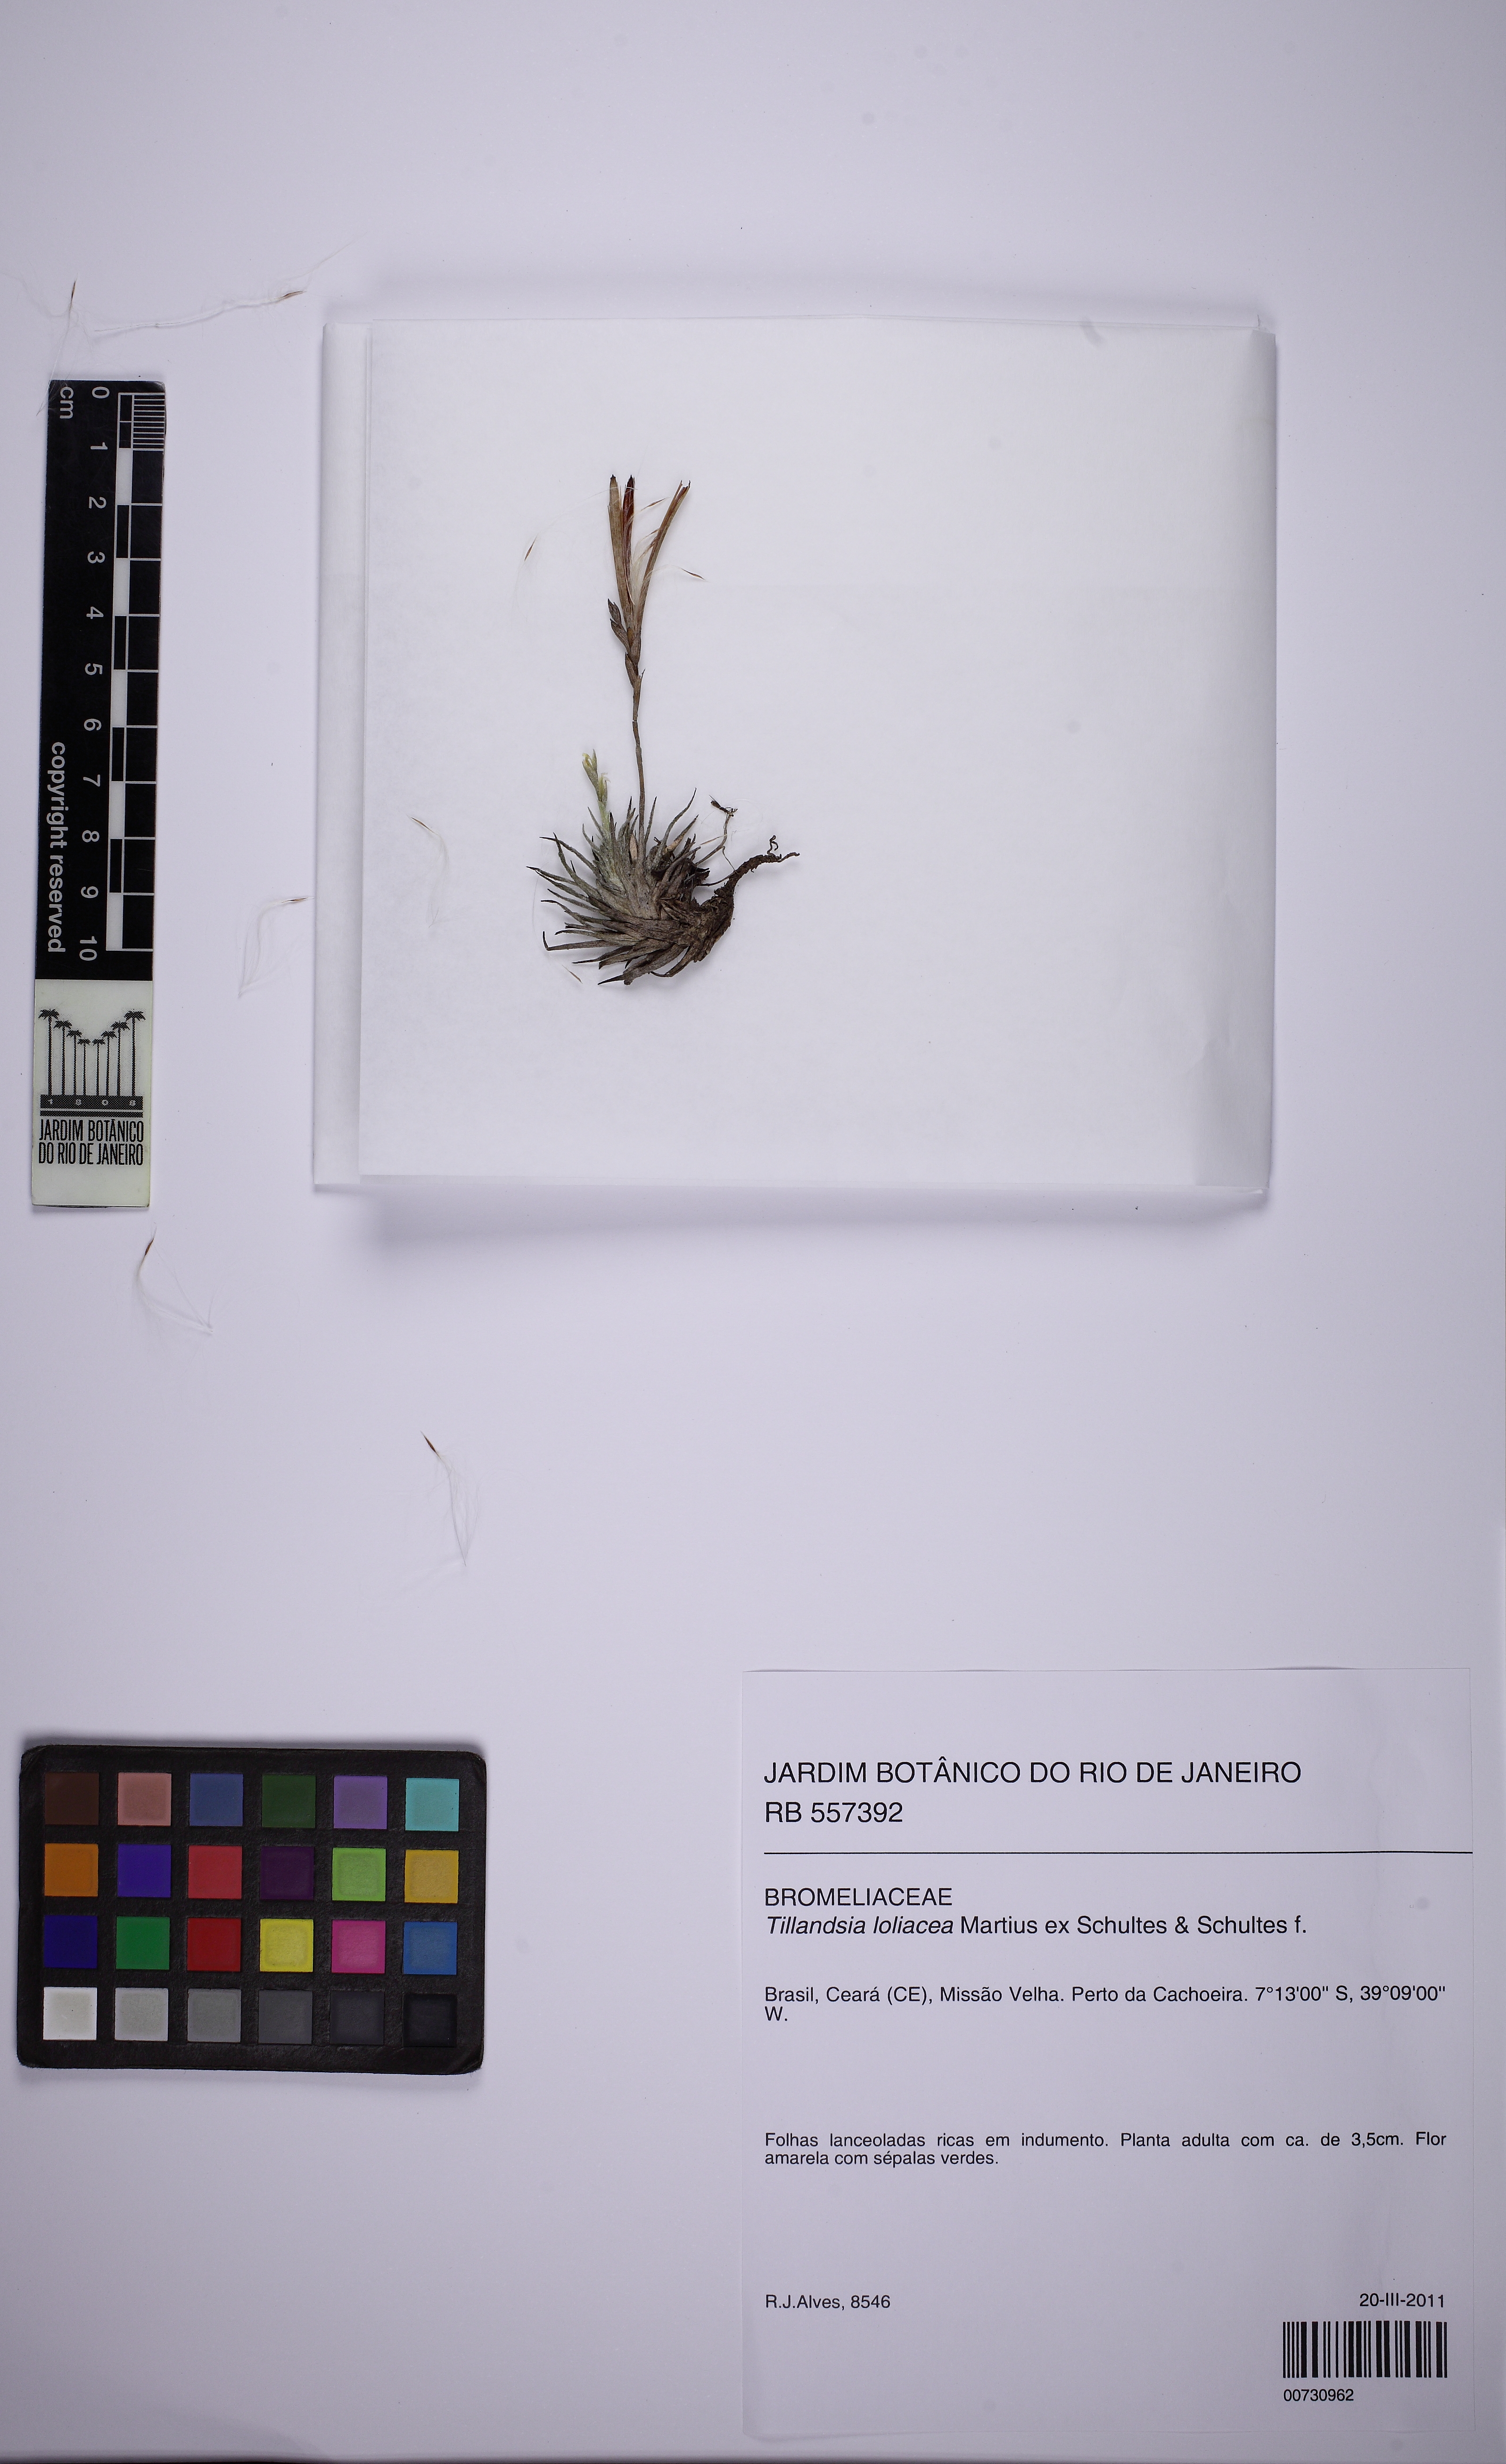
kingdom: Plantae
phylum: Tracheophyta
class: Liliopsida
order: Poales
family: Bromeliaceae
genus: Tillandsia
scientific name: Tillandsia loliacea
